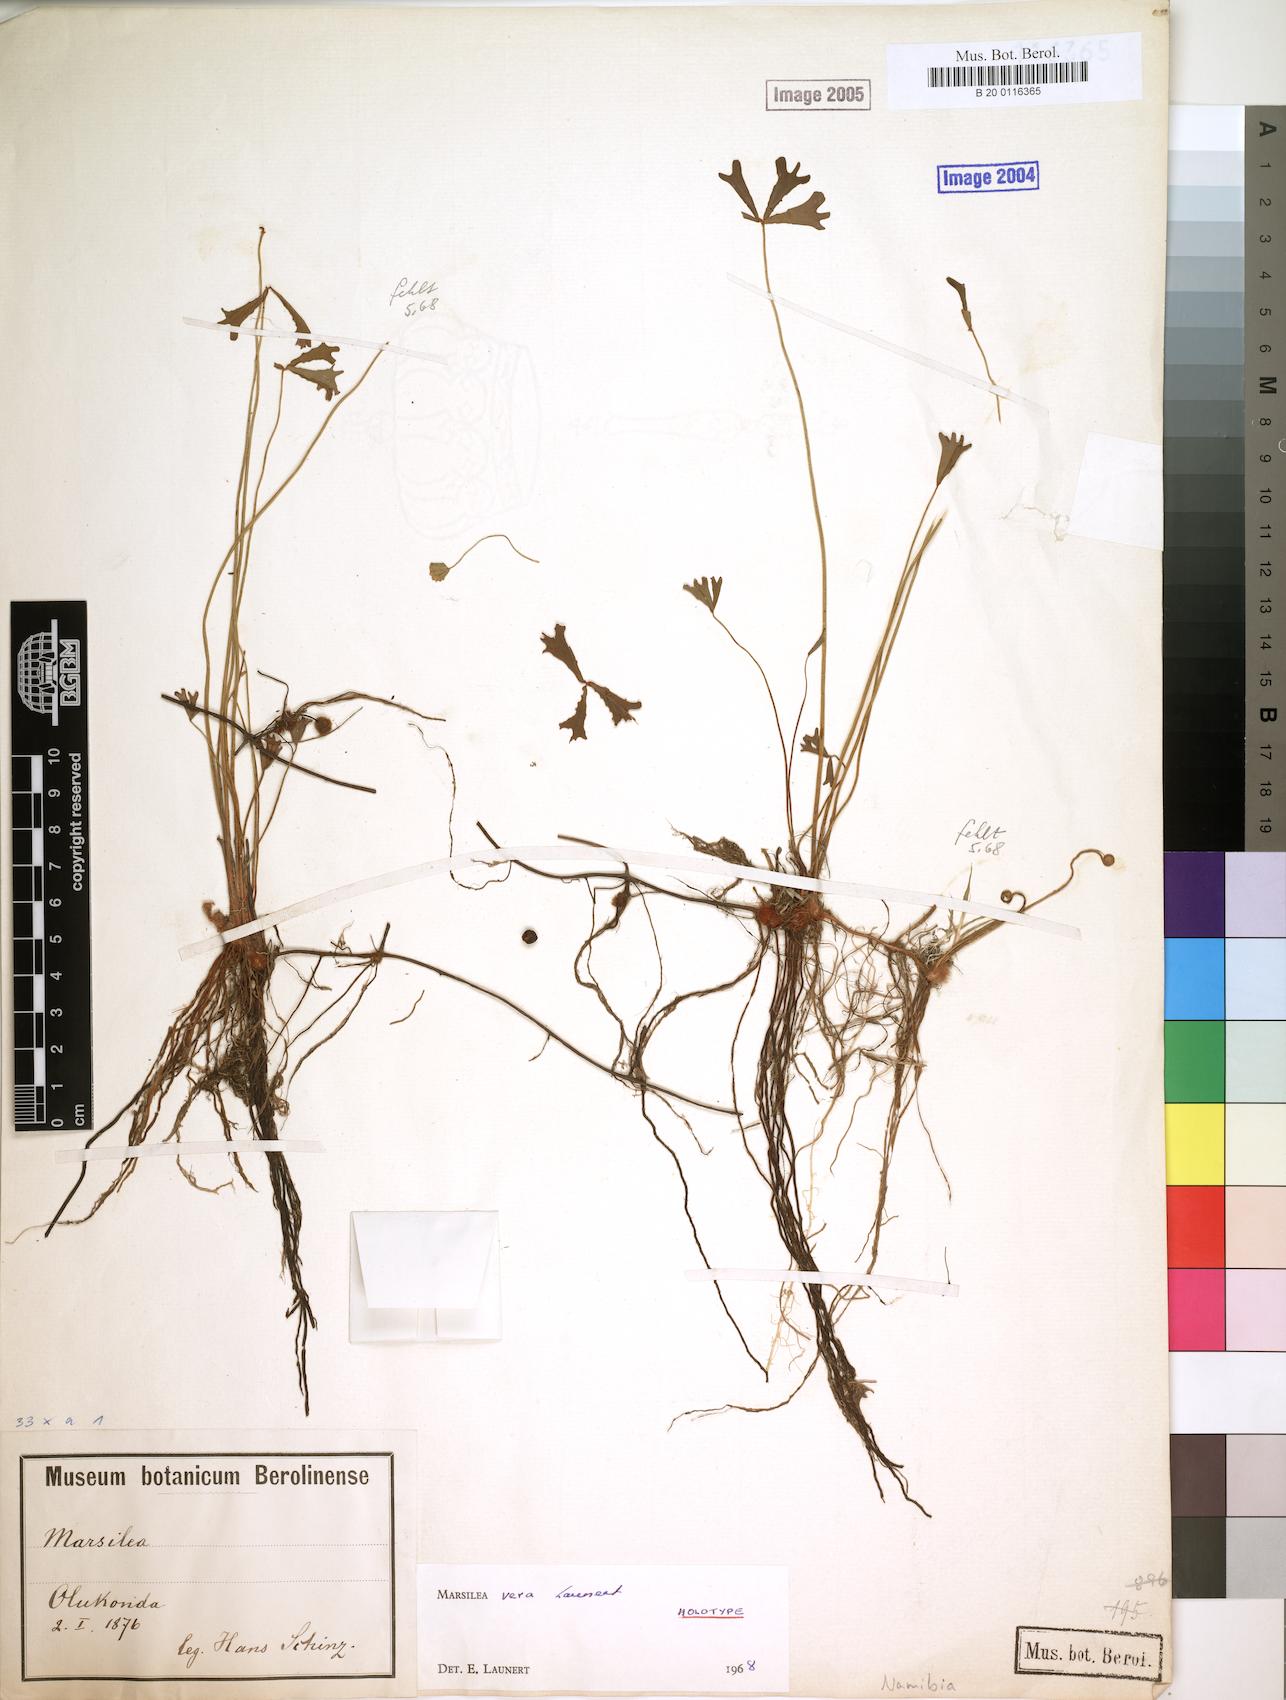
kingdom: Plantae
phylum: Tracheophyta
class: Polypodiopsida
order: Salviniales
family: Marsileaceae
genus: Marsilea
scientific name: Marsilea owambo
